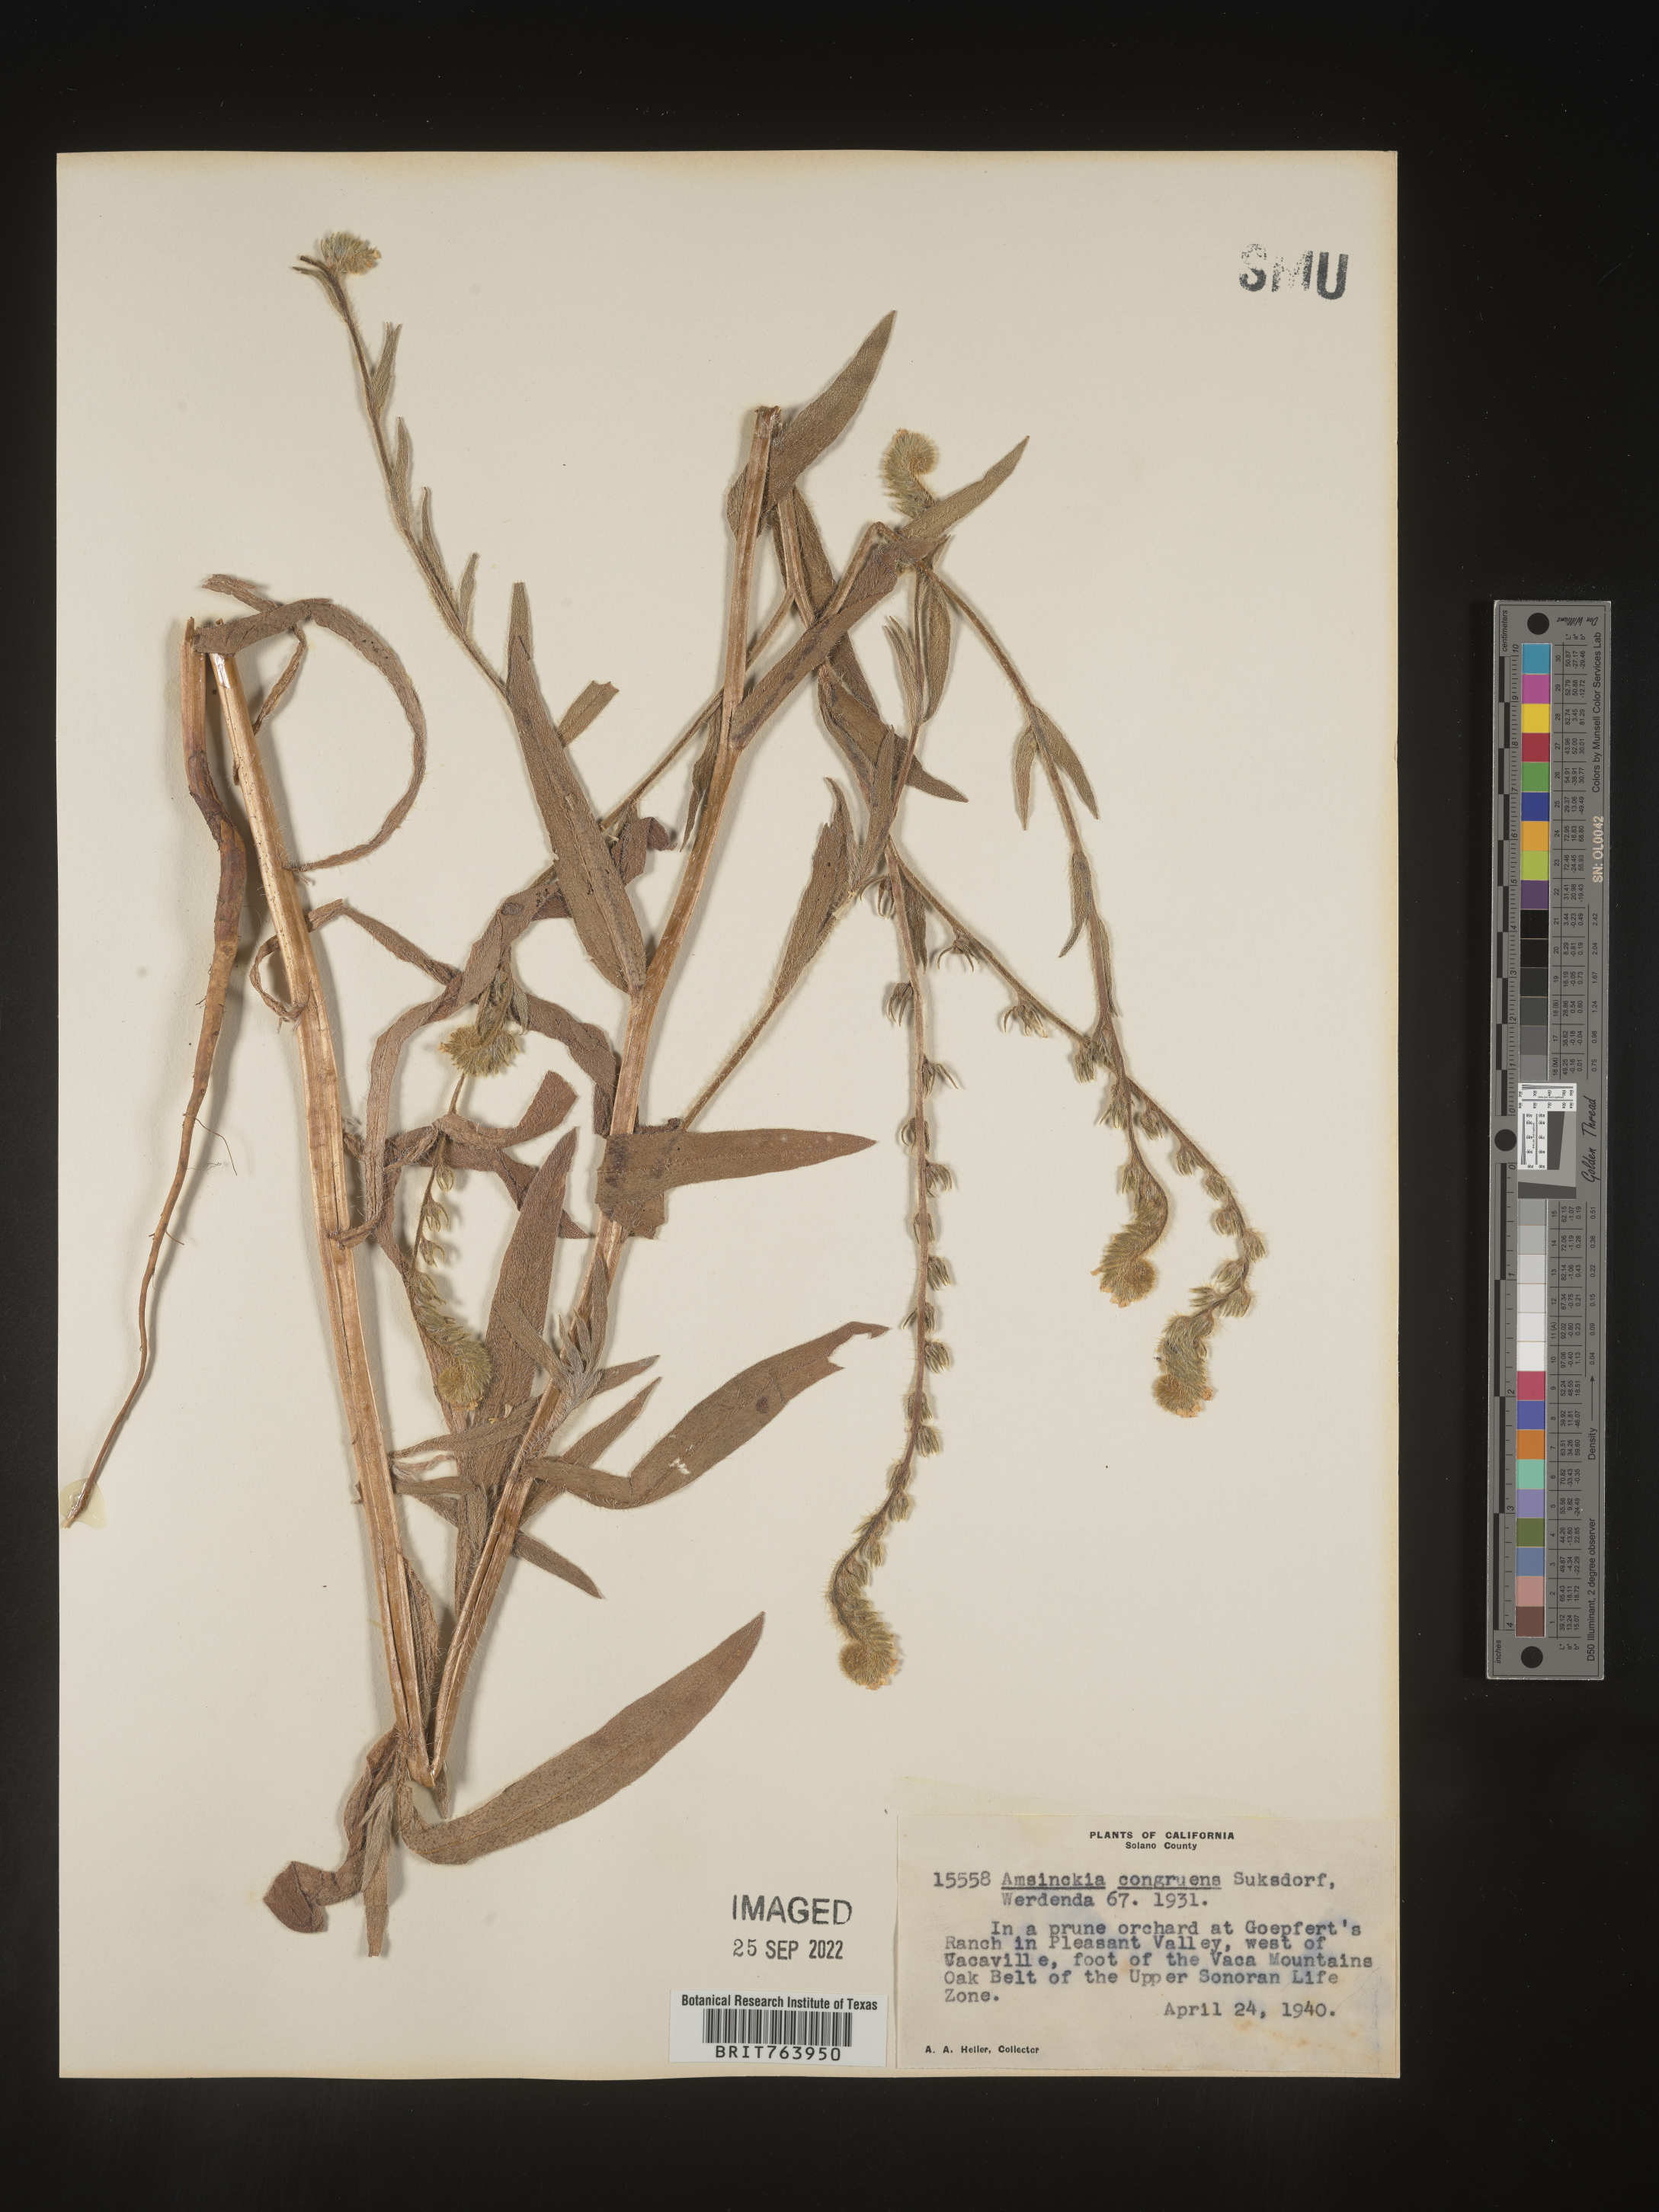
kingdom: Plantae
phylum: Tracheophyta
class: Magnoliopsida
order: Boraginales
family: Boraginaceae
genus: Amsinckia
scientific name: Amsinckia
